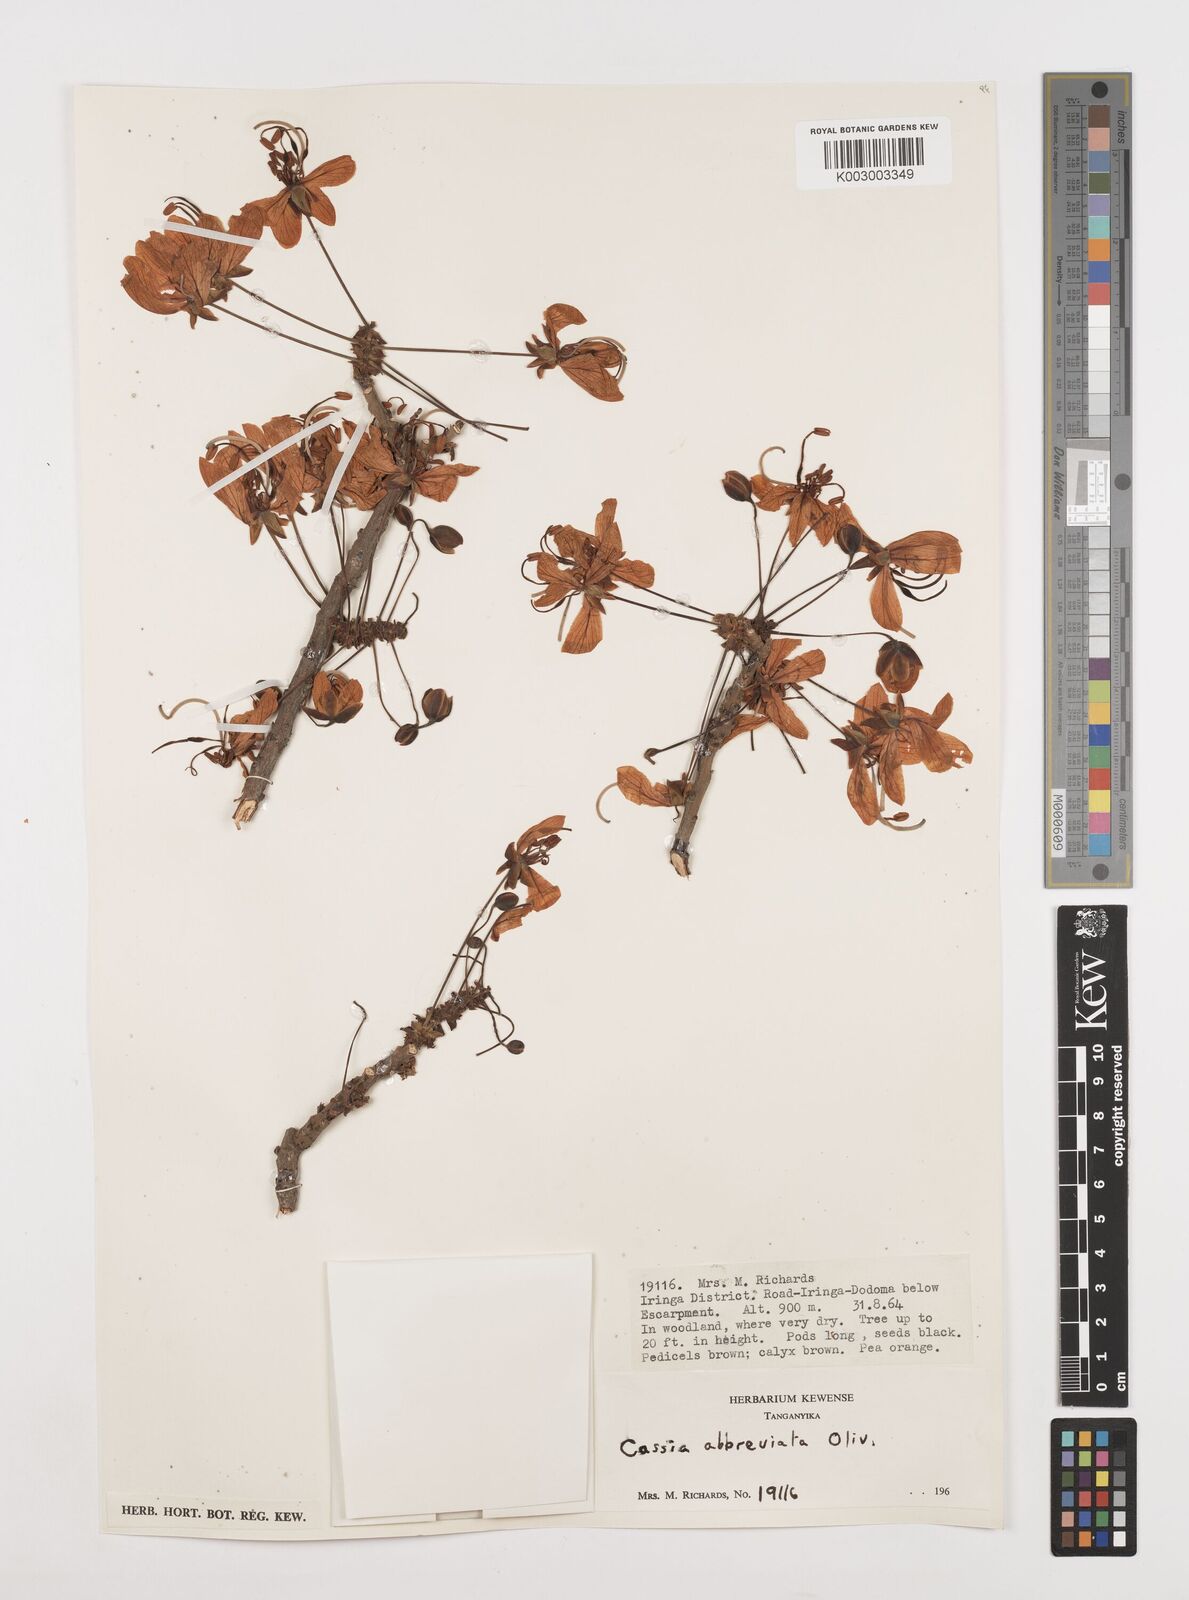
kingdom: Plantae
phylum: Tracheophyta
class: Magnoliopsida
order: Fabales
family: Fabaceae
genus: Cassia
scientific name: Cassia abbreviata
